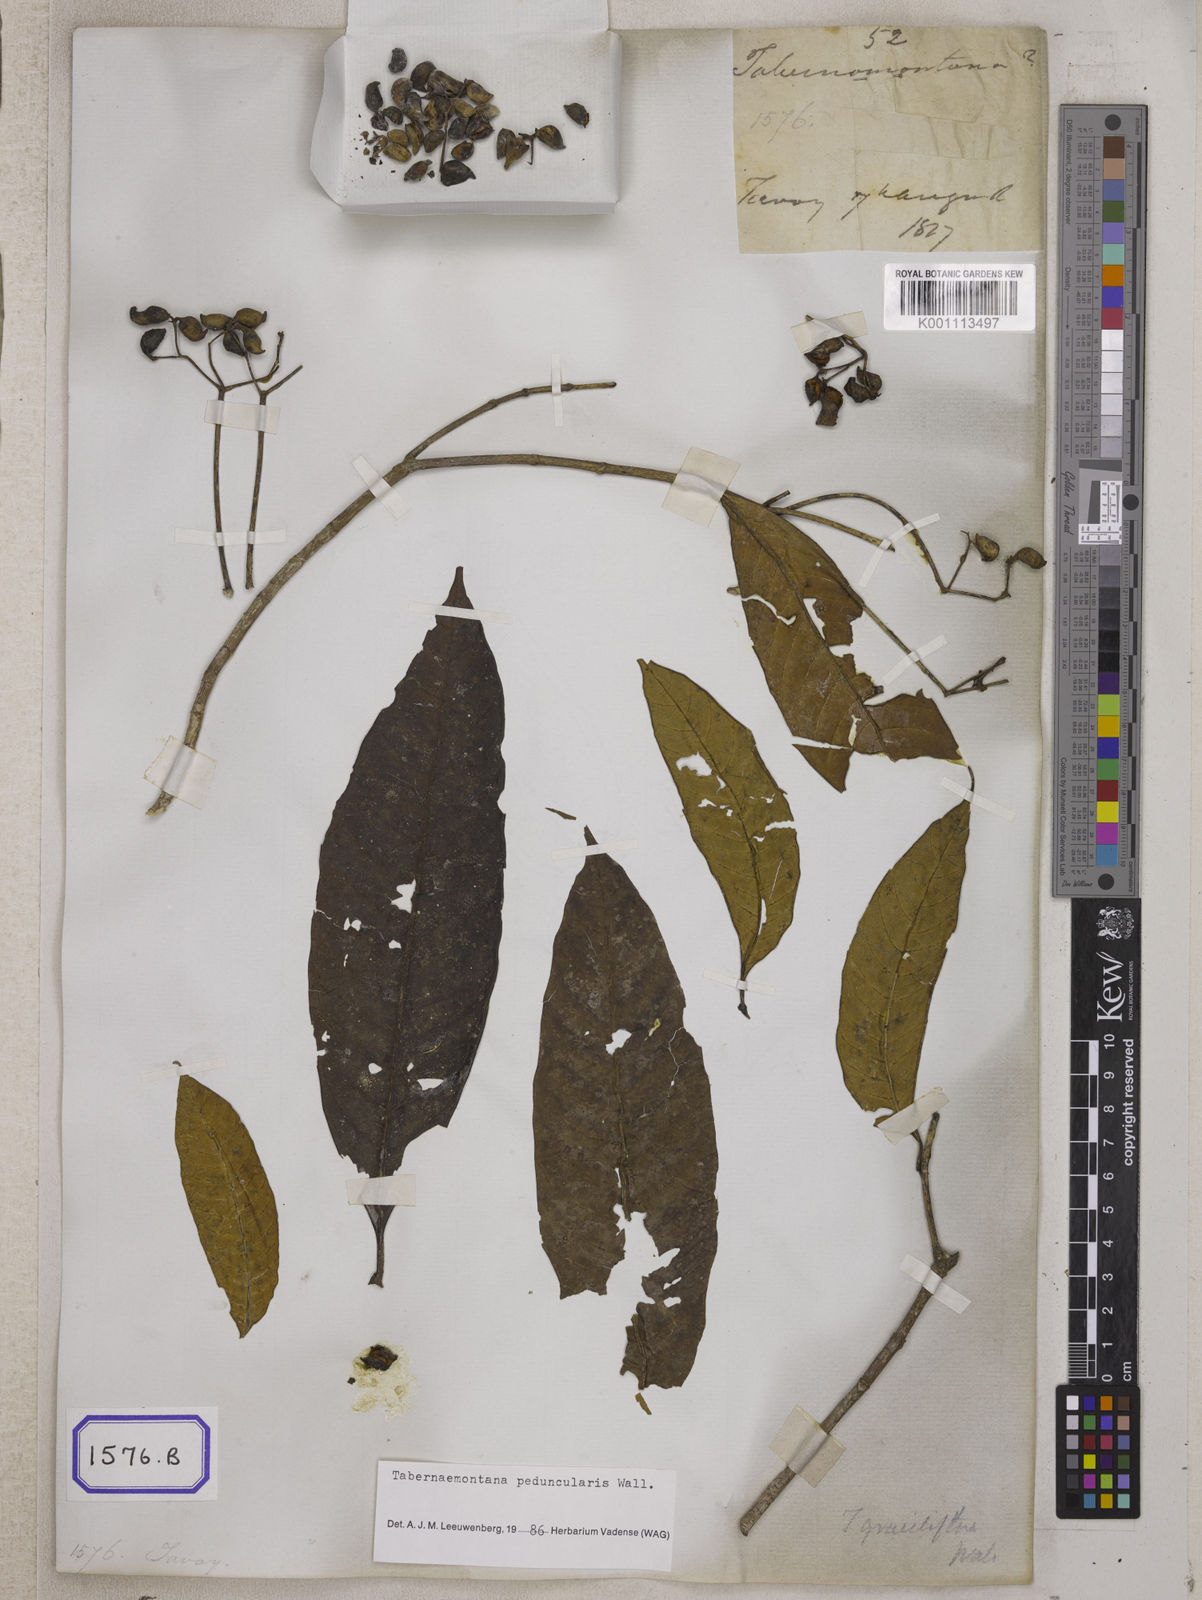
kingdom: Plantae
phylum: Tracheophyta
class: Magnoliopsida
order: Gentianales
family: Apocynaceae
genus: Tabernaemontana
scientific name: Tabernaemontana peduncularis
